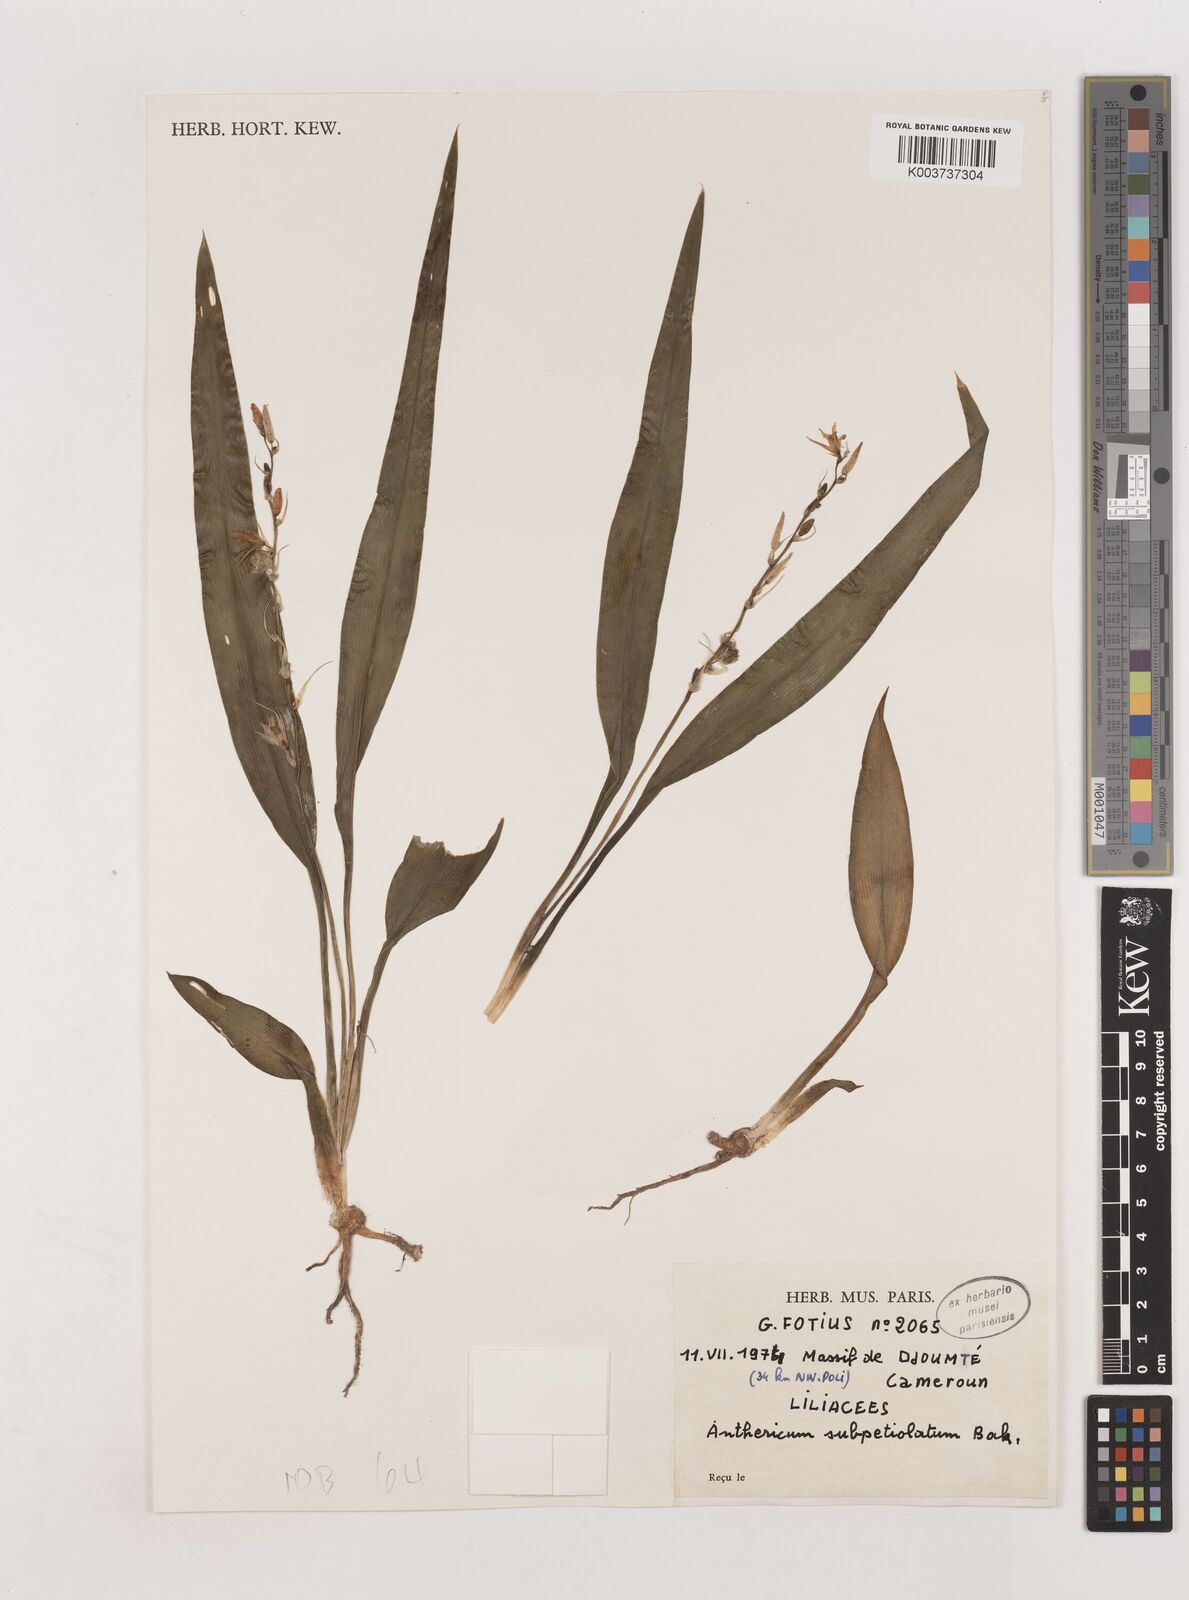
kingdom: Plantae
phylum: Tracheophyta
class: Liliopsida
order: Asparagales
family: Asparagaceae
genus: Chlorophytum
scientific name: Chlorophytum subpetiolatum
